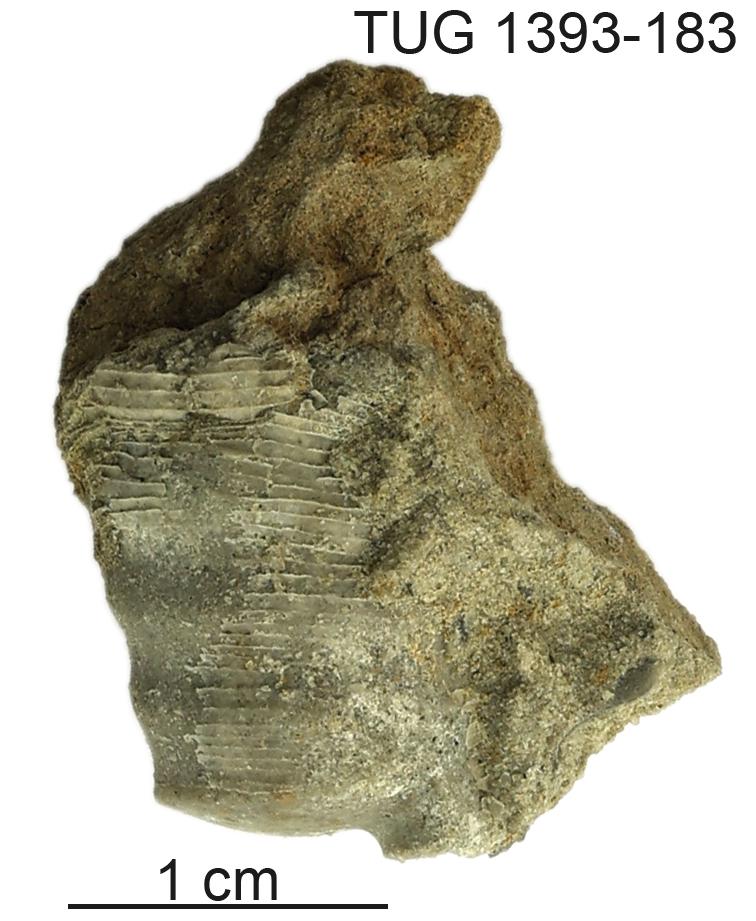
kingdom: Animalia
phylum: Mollusca
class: Cephalopoda
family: Proterocameroceratidae
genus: Anthoceras
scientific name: Anthoceras Orthoceras vaginatus
